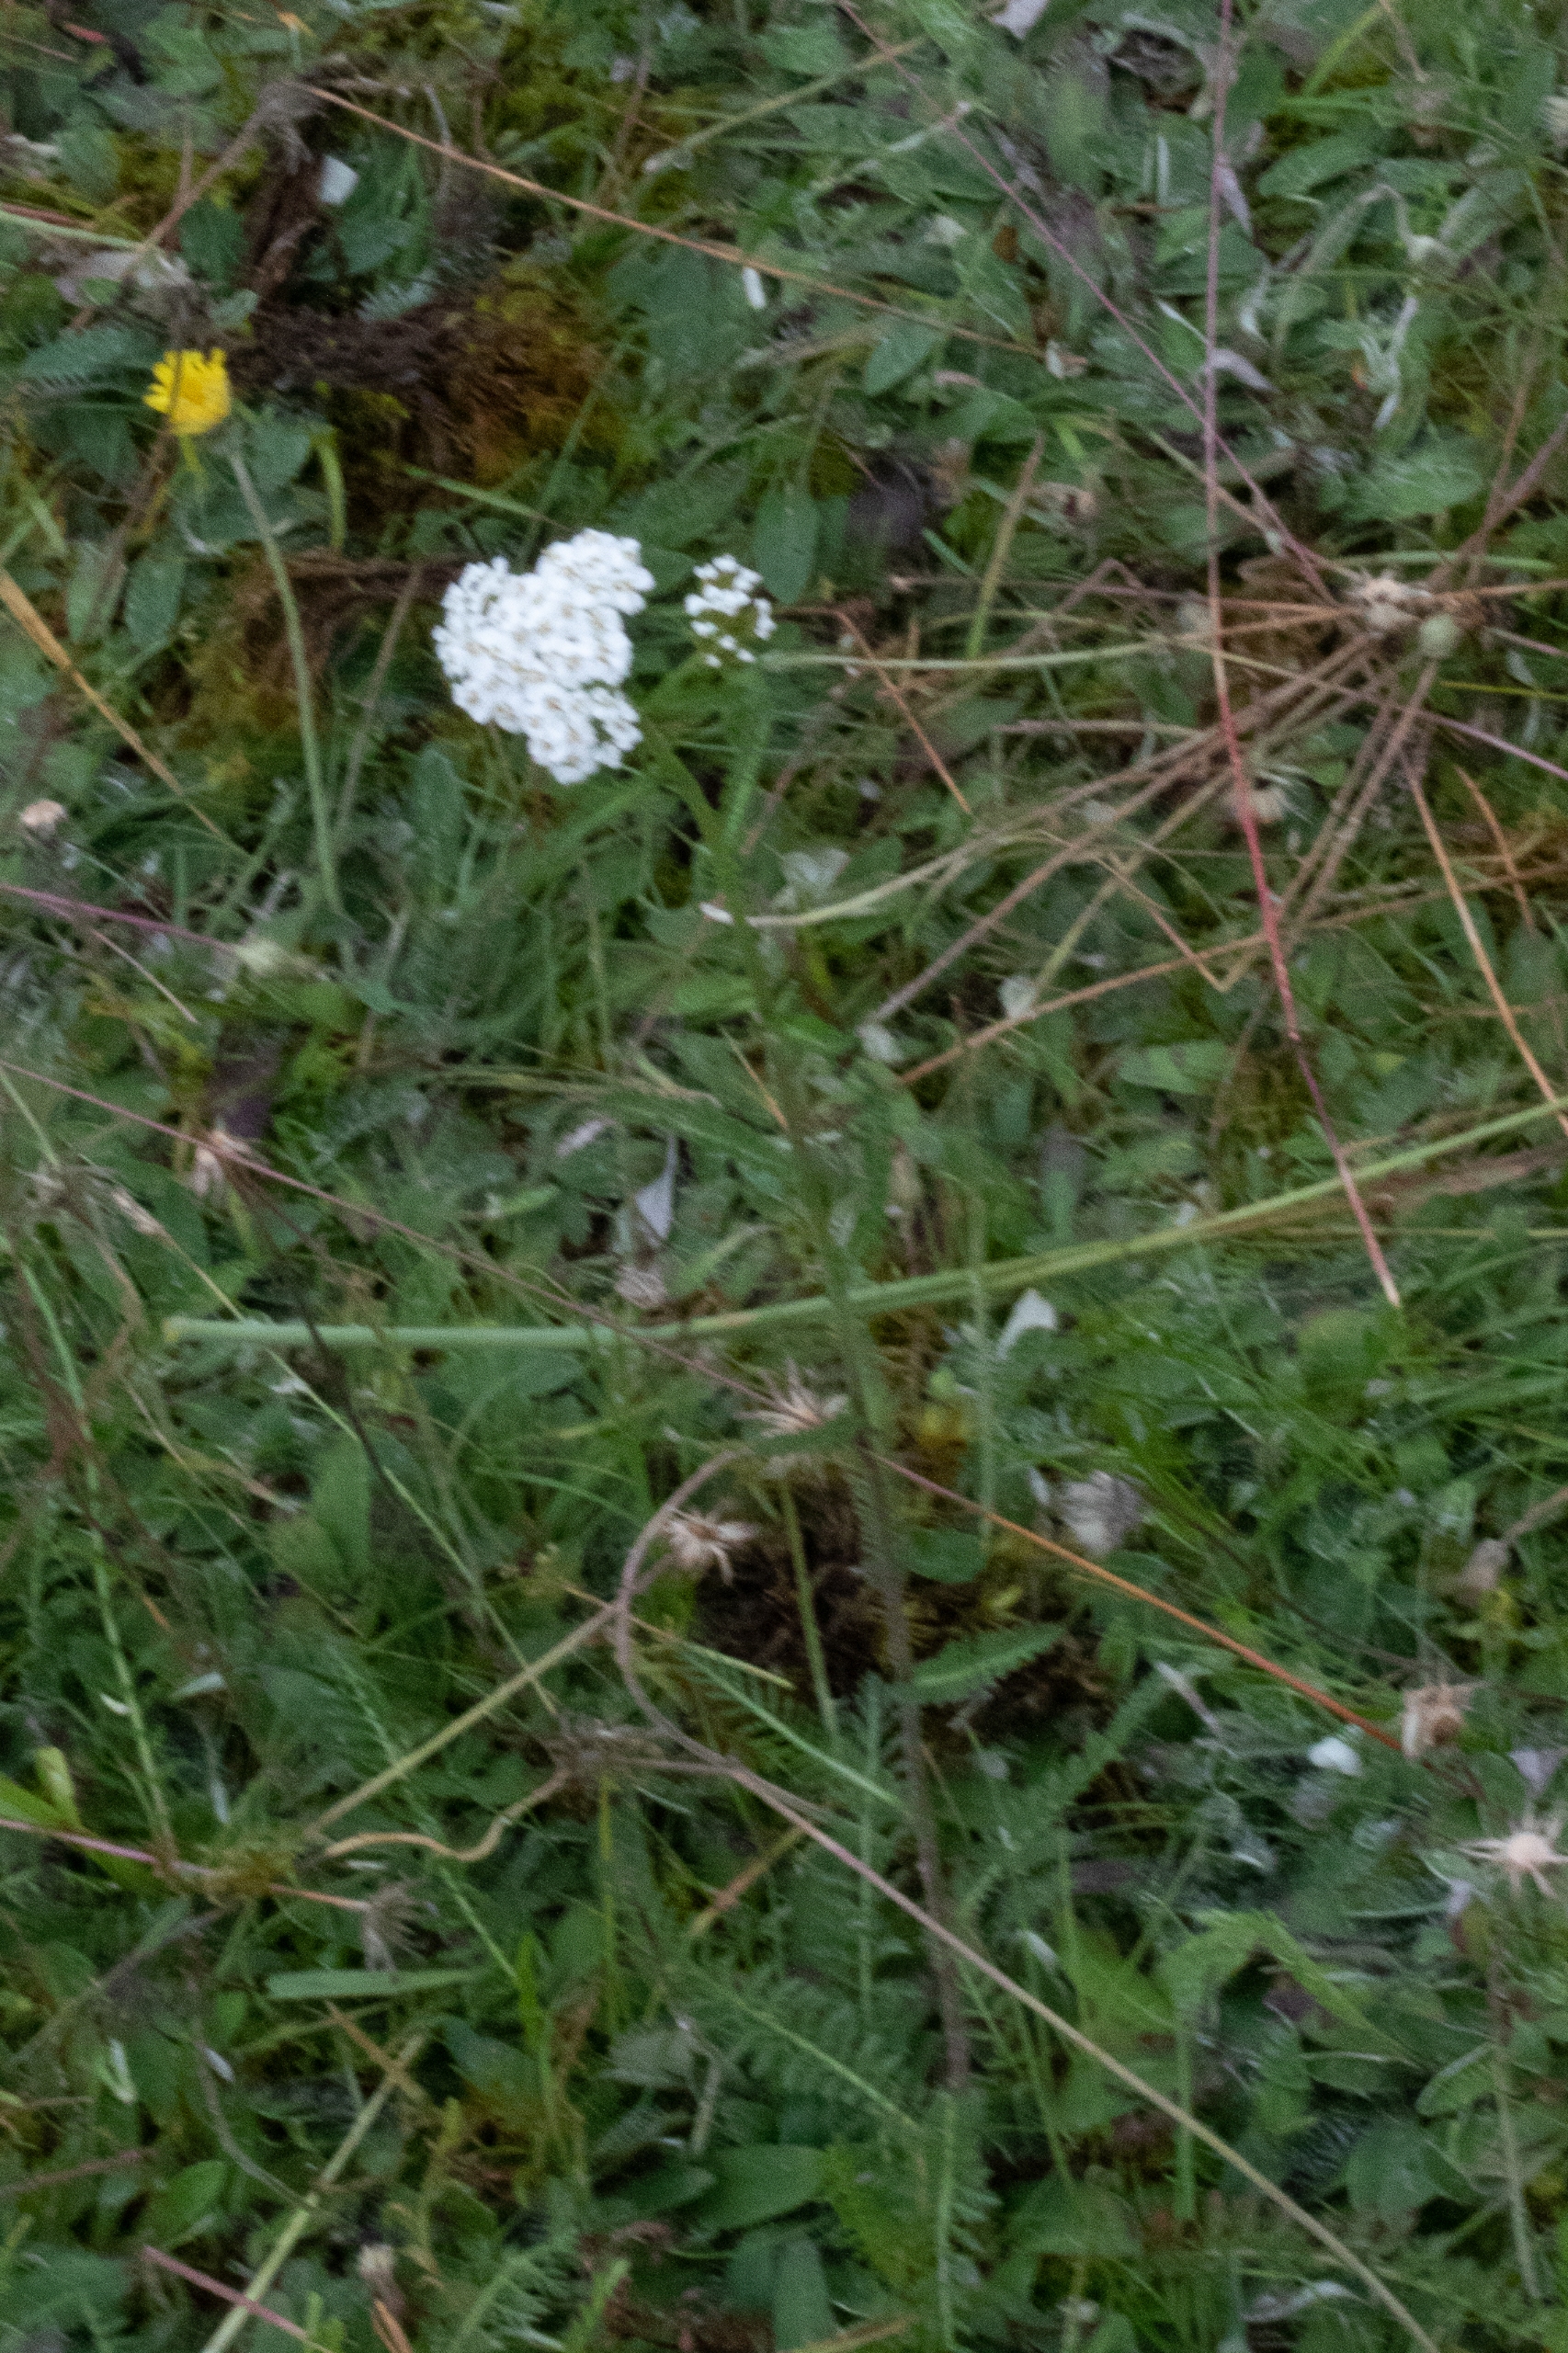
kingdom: Plantae
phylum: Tracheophyta
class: Magnoliopsida
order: Asterales
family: Asteraceae
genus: Achillea
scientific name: Achillea millefolium
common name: Almindelig røllike
